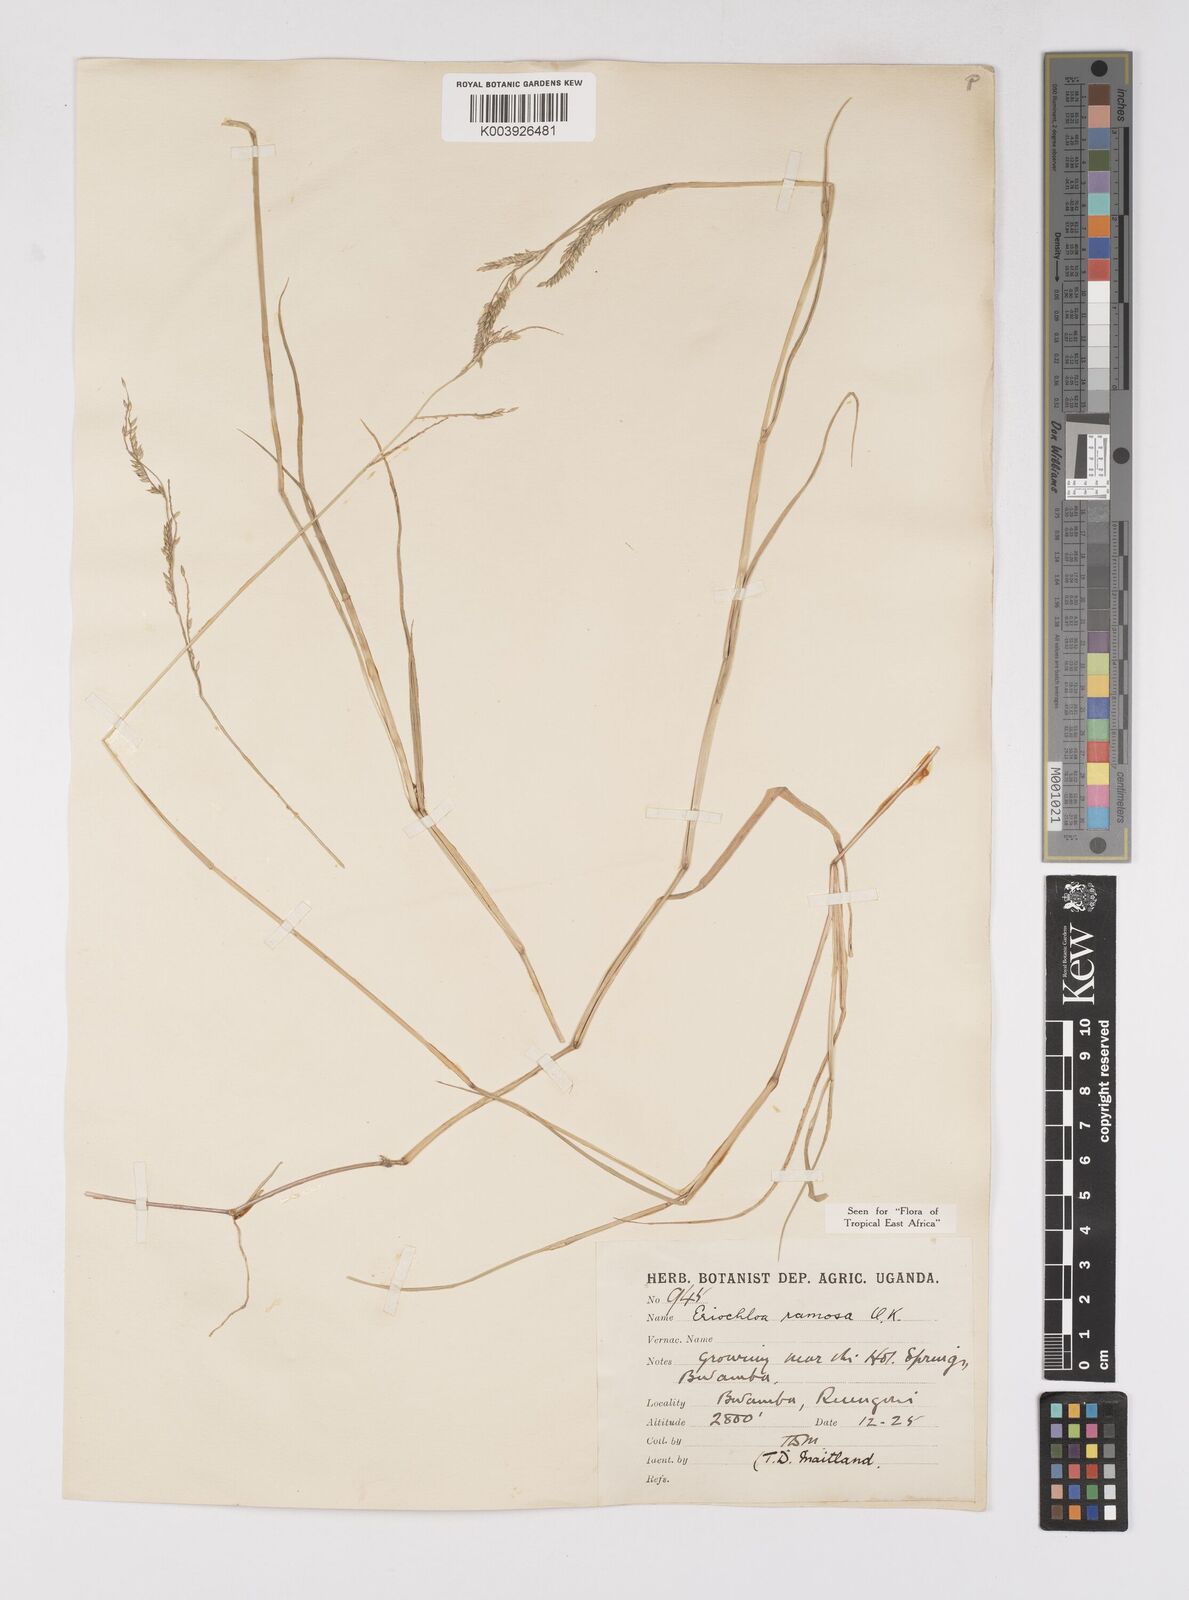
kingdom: Plantae
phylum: Tracheophyta
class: Liliopsida
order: Poales
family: Poaceae
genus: Eriochloa
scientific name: Eriochloa procera
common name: Spring grass
